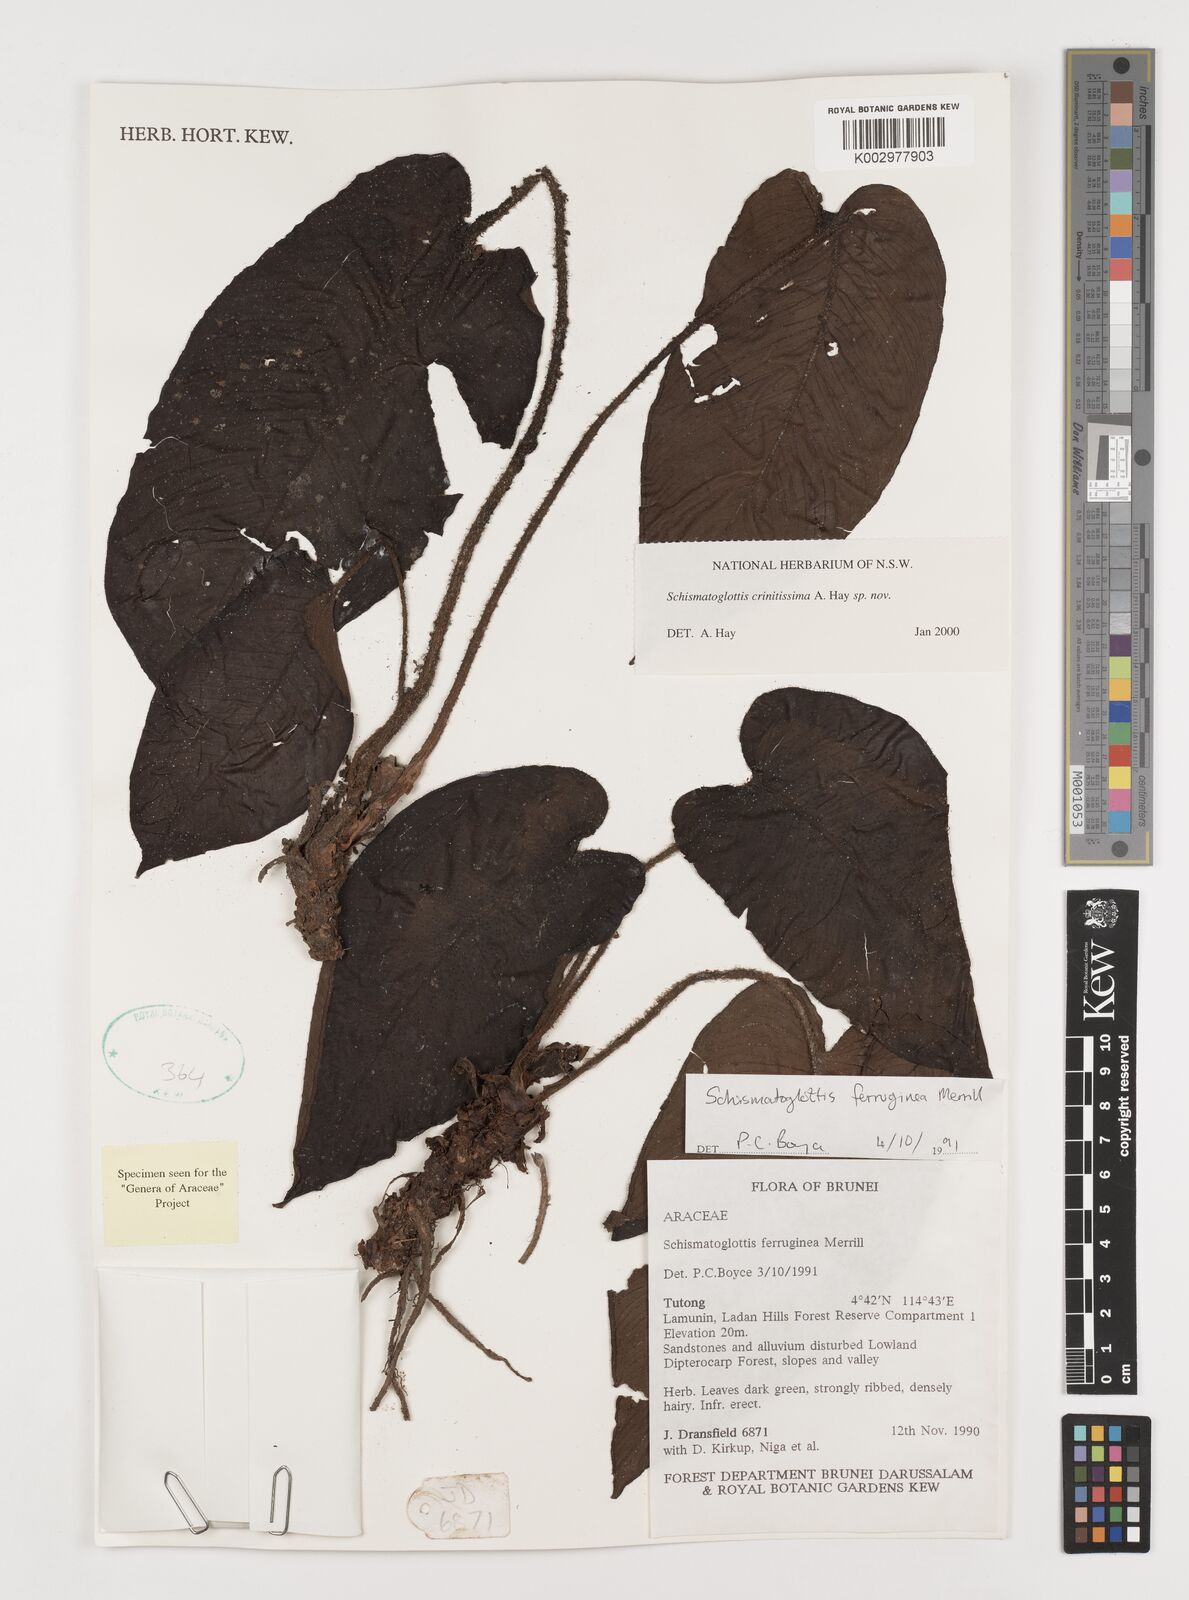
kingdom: Plantae
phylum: Tracheophyta
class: Liliopsida
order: Alismatales
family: Araceae
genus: Schismatoglottis
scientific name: Schismatoglottis crinitissima
